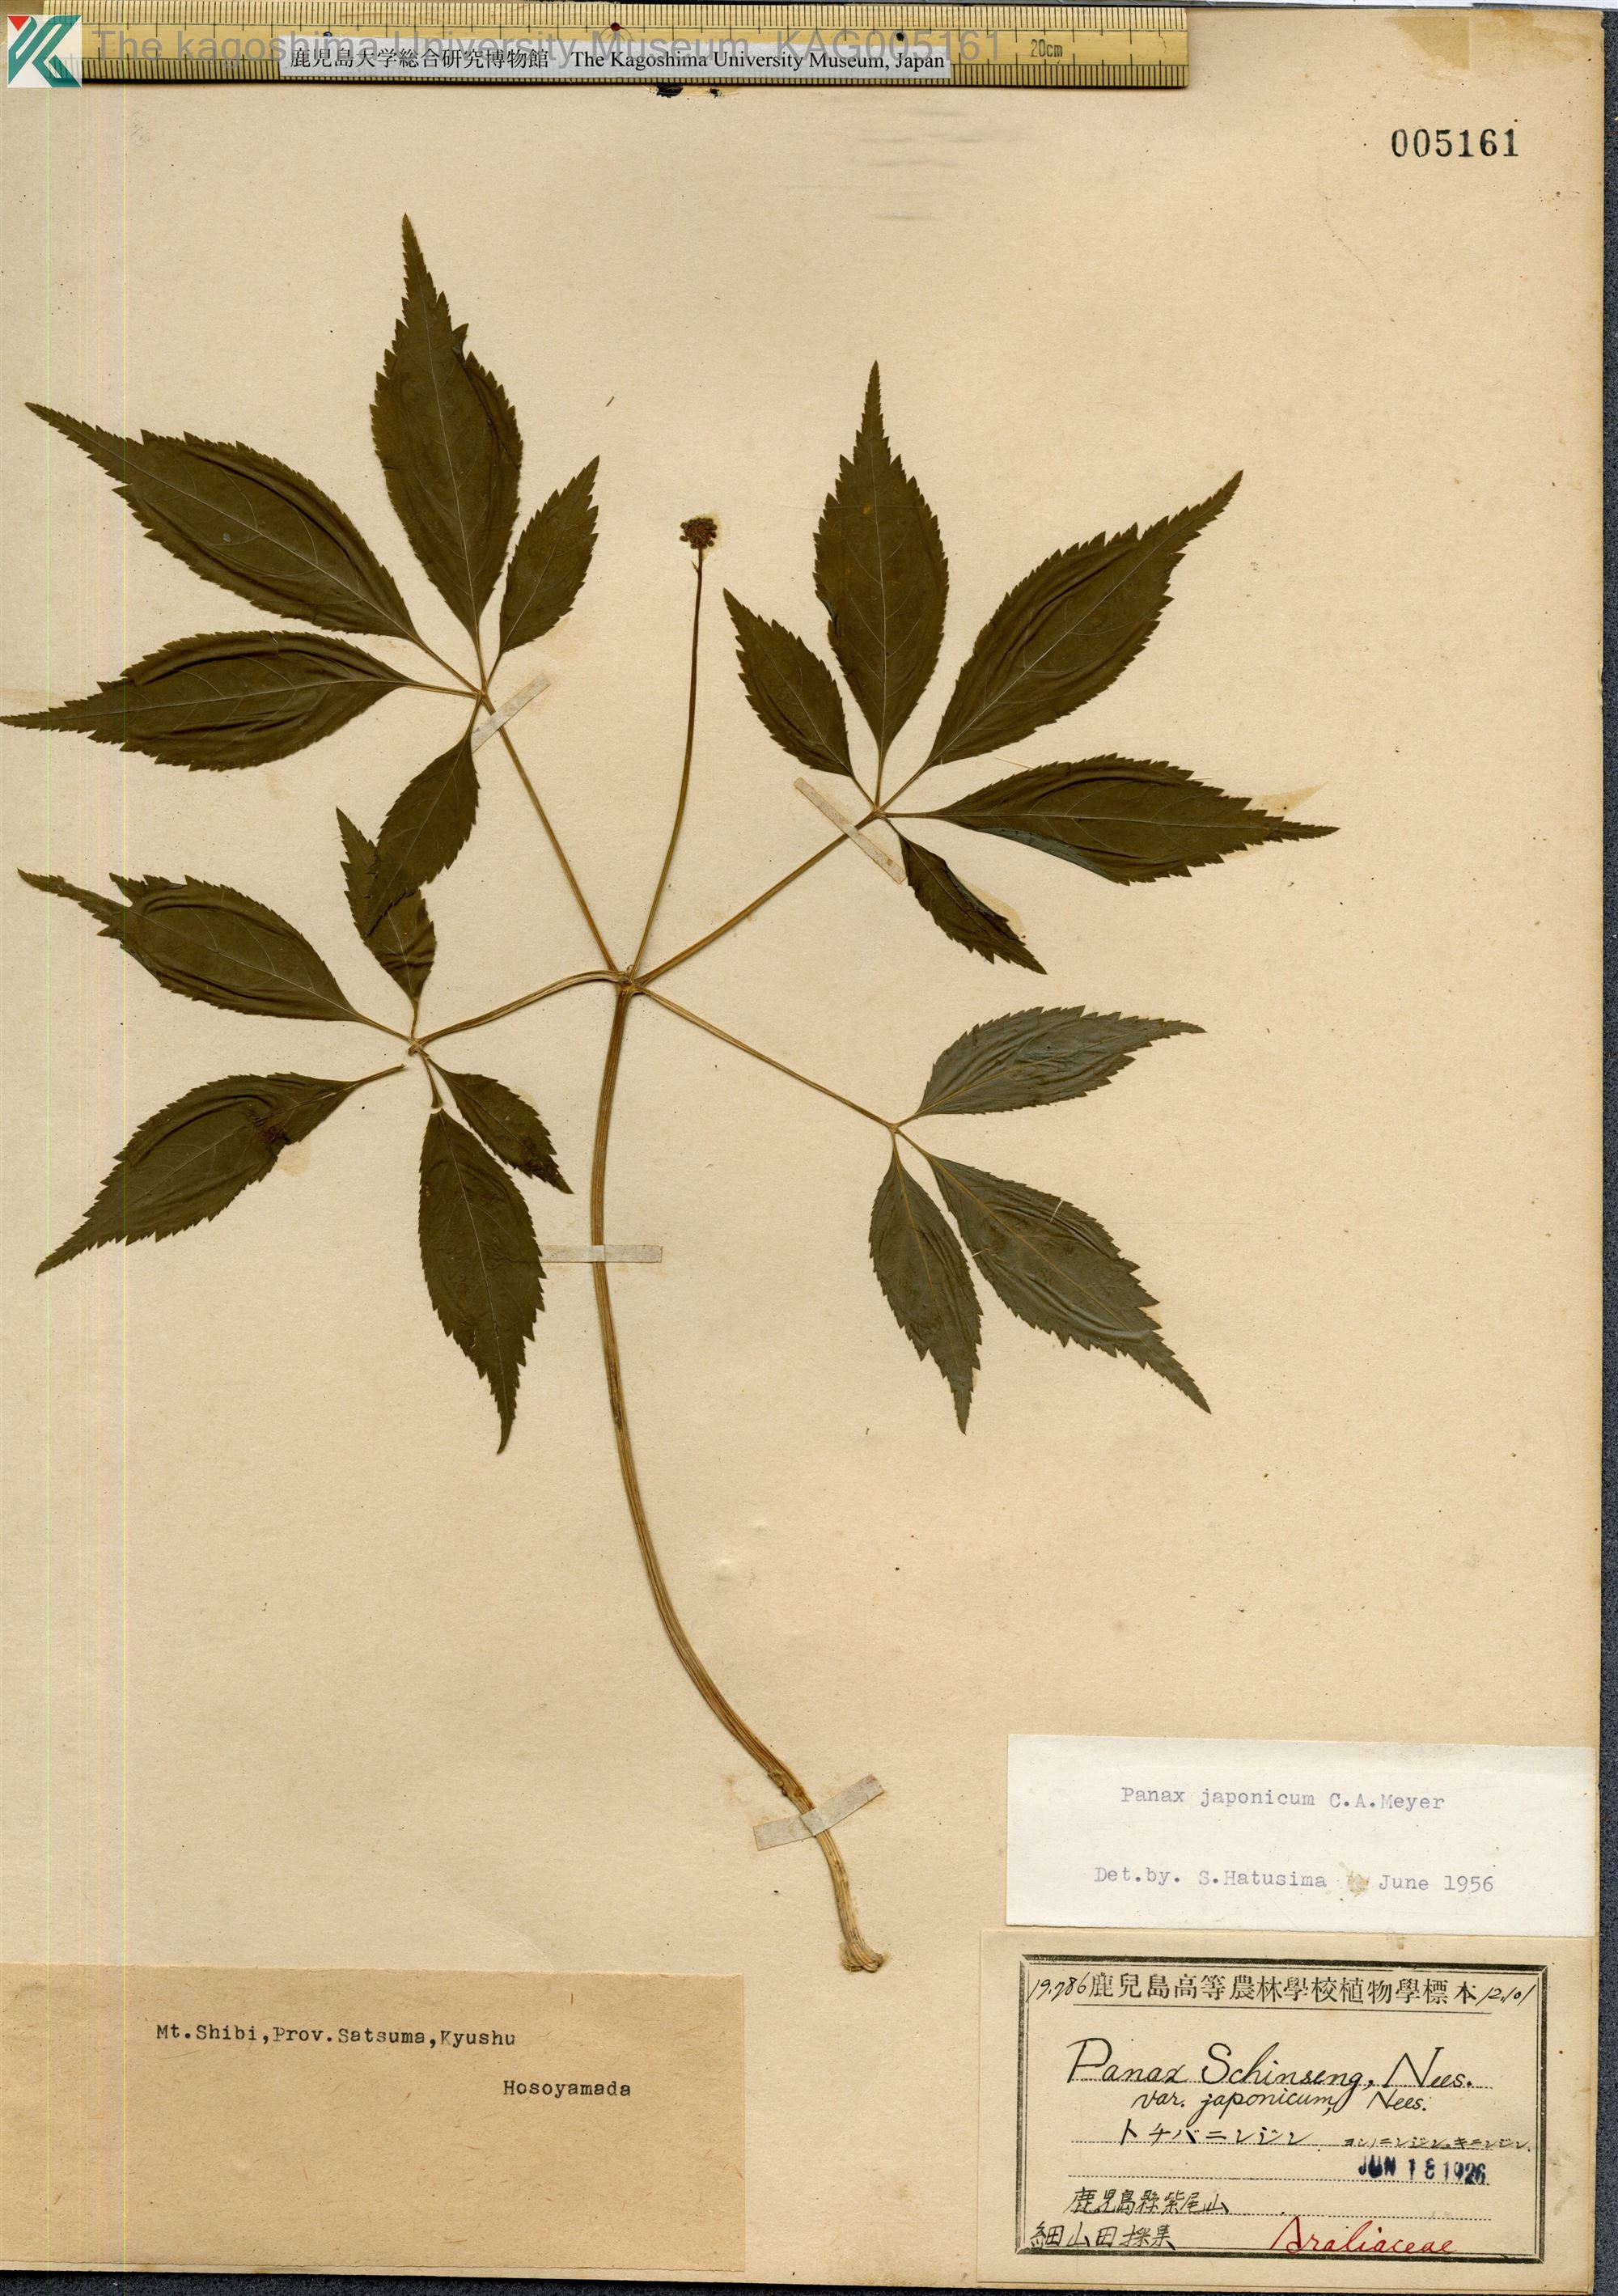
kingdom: Plantae
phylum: Tracheophyta
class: Magnoliopsida
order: Apiales
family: Araliaceae
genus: Panax
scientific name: Panax japonicus
